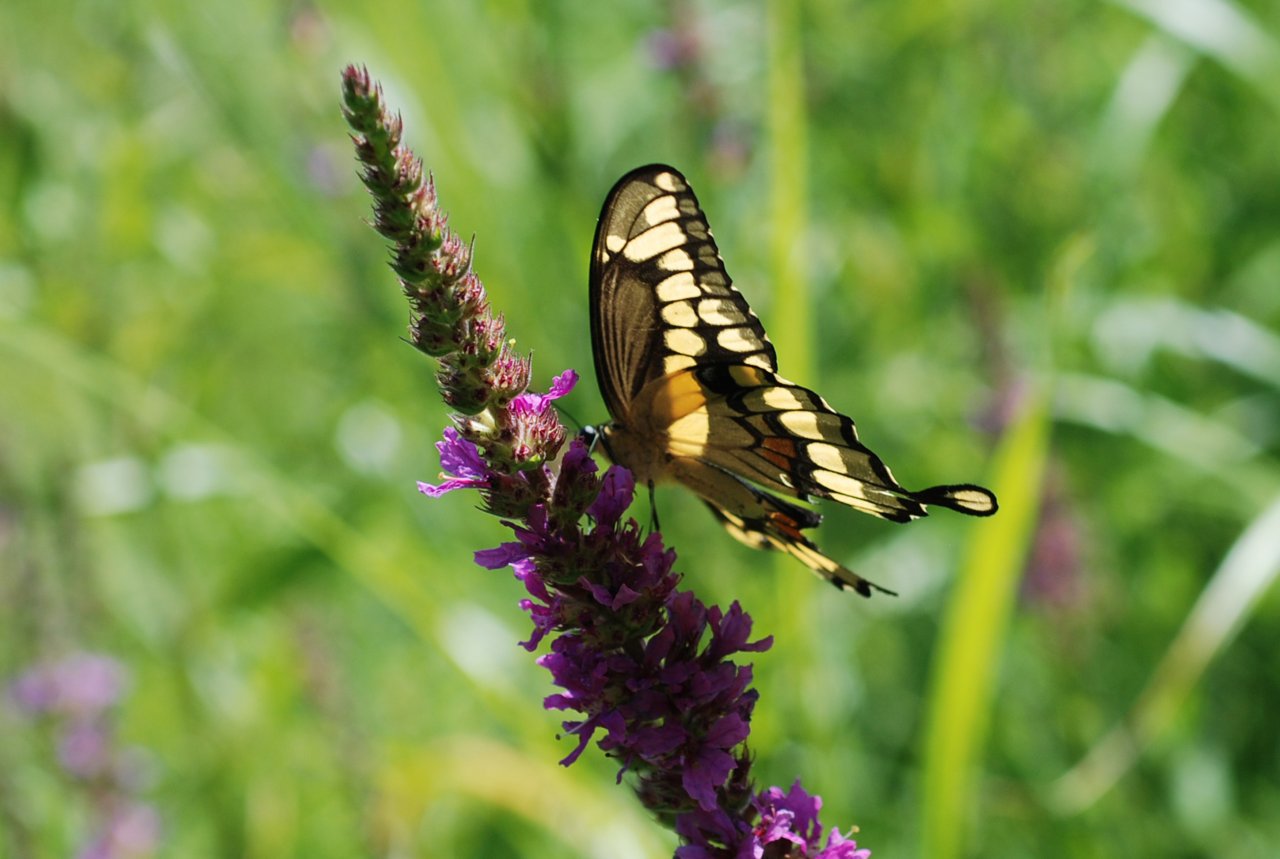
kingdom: Animalia
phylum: Arthropoda
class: Insecta
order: Lepidoptera
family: Papilionidae
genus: Papilio
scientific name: Papilio cresphontes
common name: Eastern Giant Swallowtail
